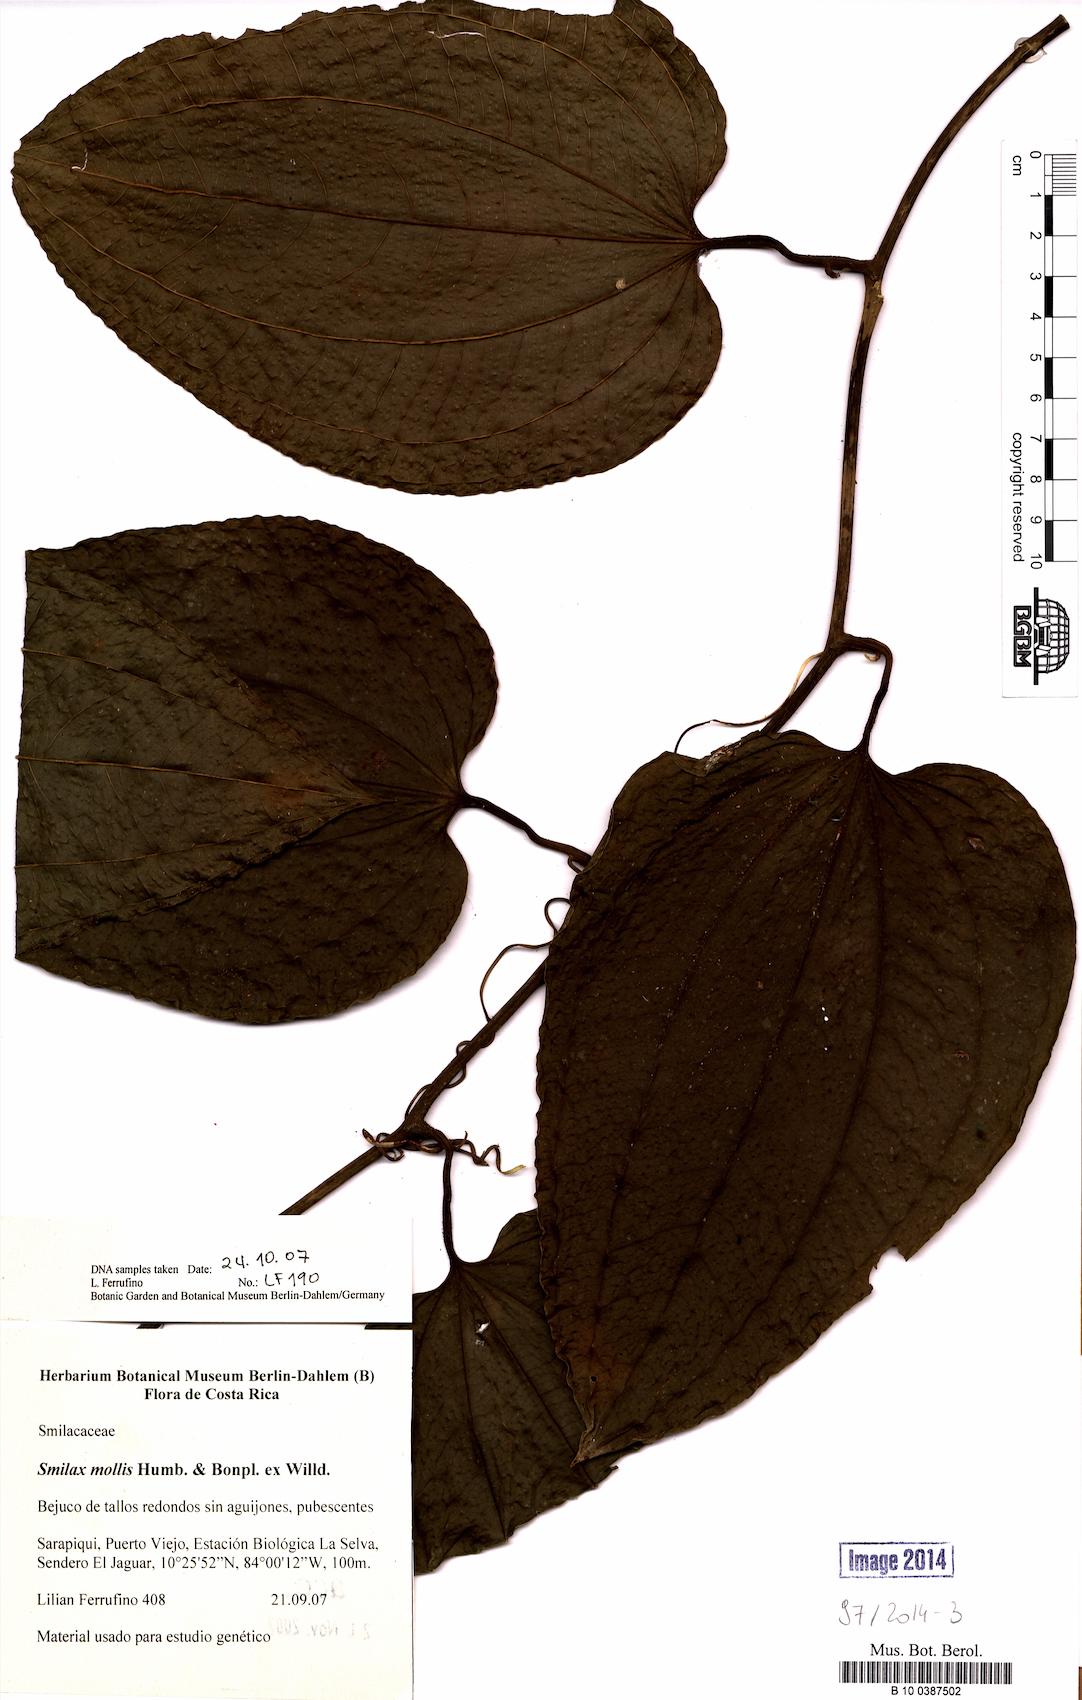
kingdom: Plantae
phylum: Tracheophyta
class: Liliopsida
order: Liliales
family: Smilacaceae
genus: Smilax
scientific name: Smilax mollis
